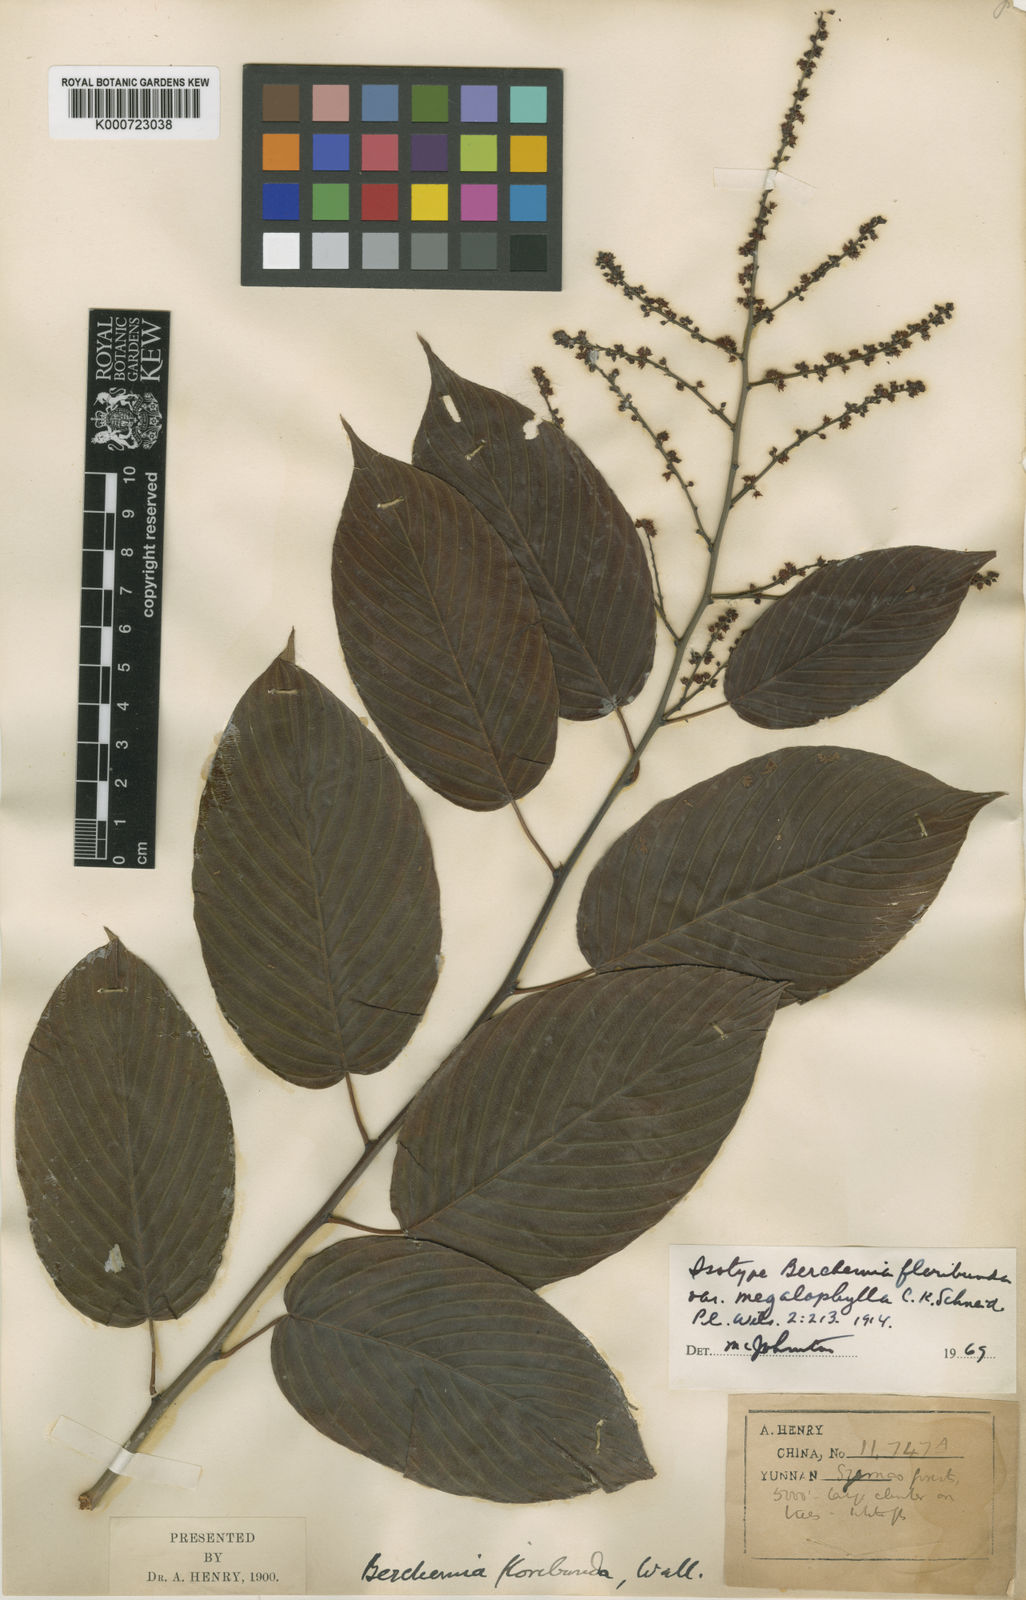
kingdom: Plantae
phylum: Tracheophyta
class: Magnoliopsida
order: Rosales
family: Rhamnaceae
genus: Berchemia
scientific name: Berchemia floribunda
